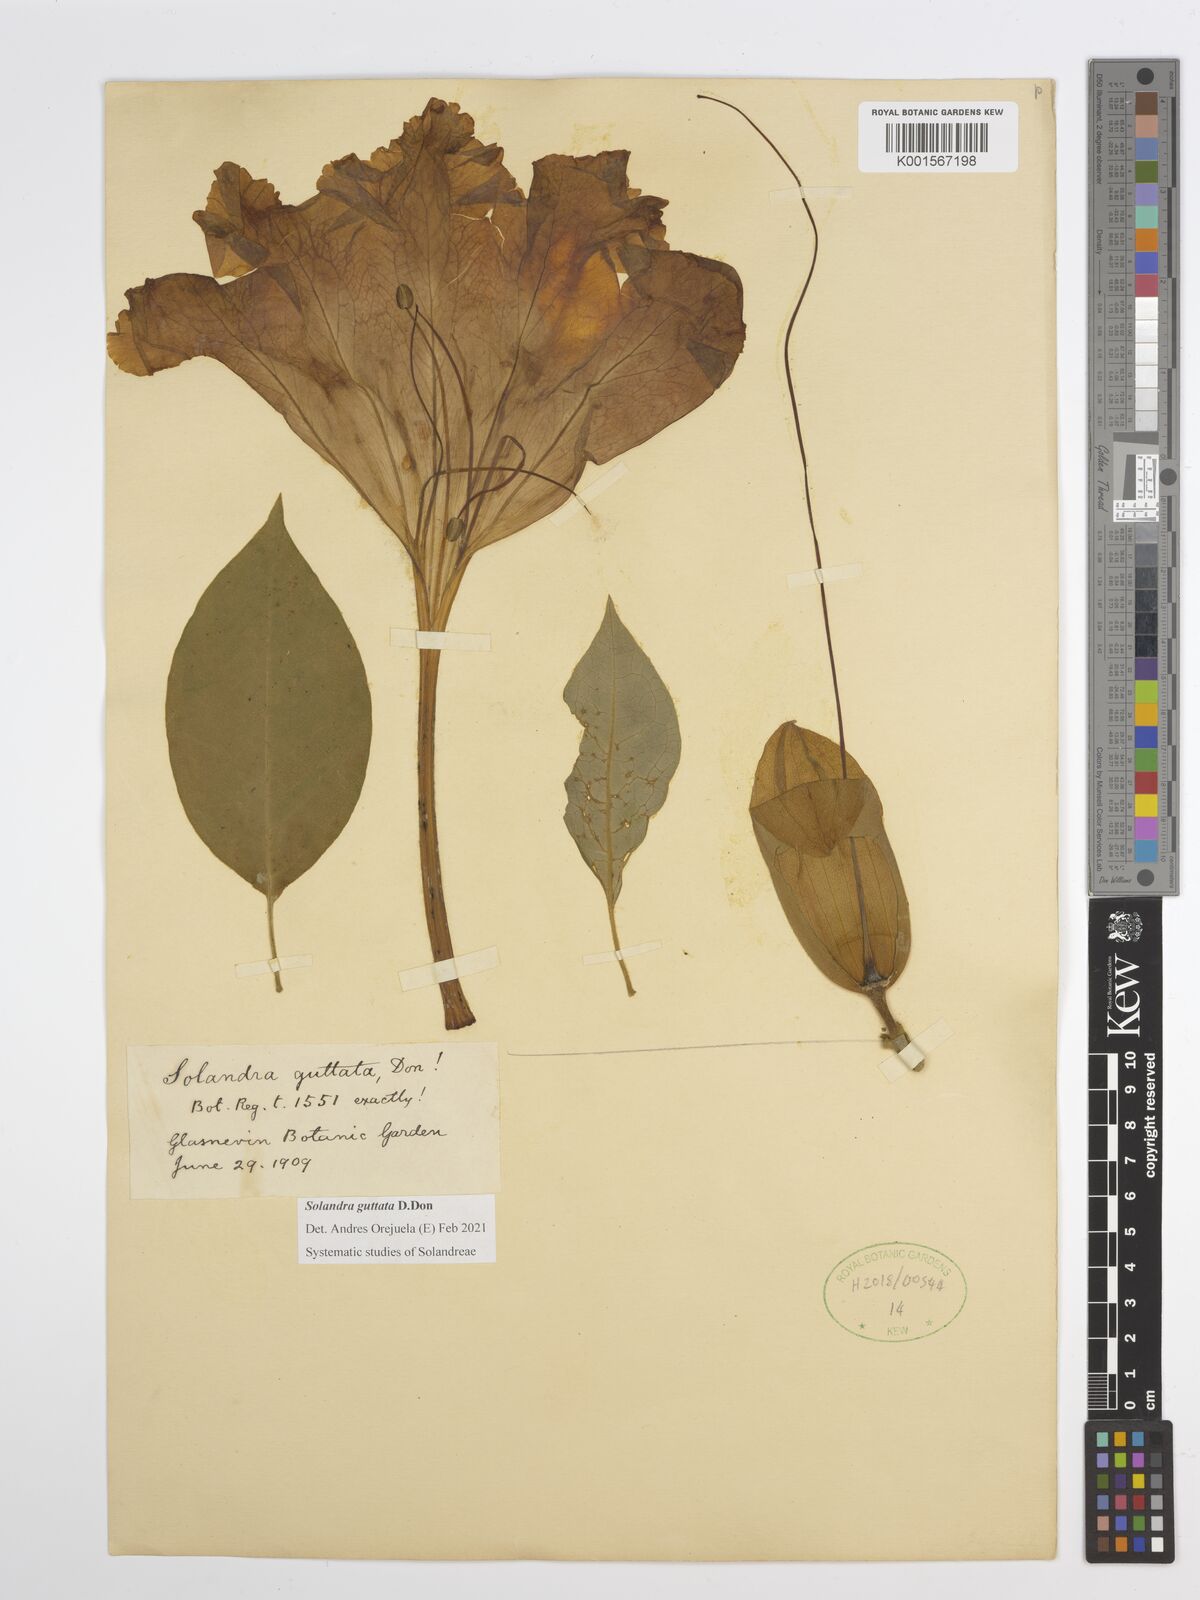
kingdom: Plantae
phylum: Tracheophyta
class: Magnoliopsida
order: Solanales
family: Solanaceae
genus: Solandra
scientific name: Solandra guttata
